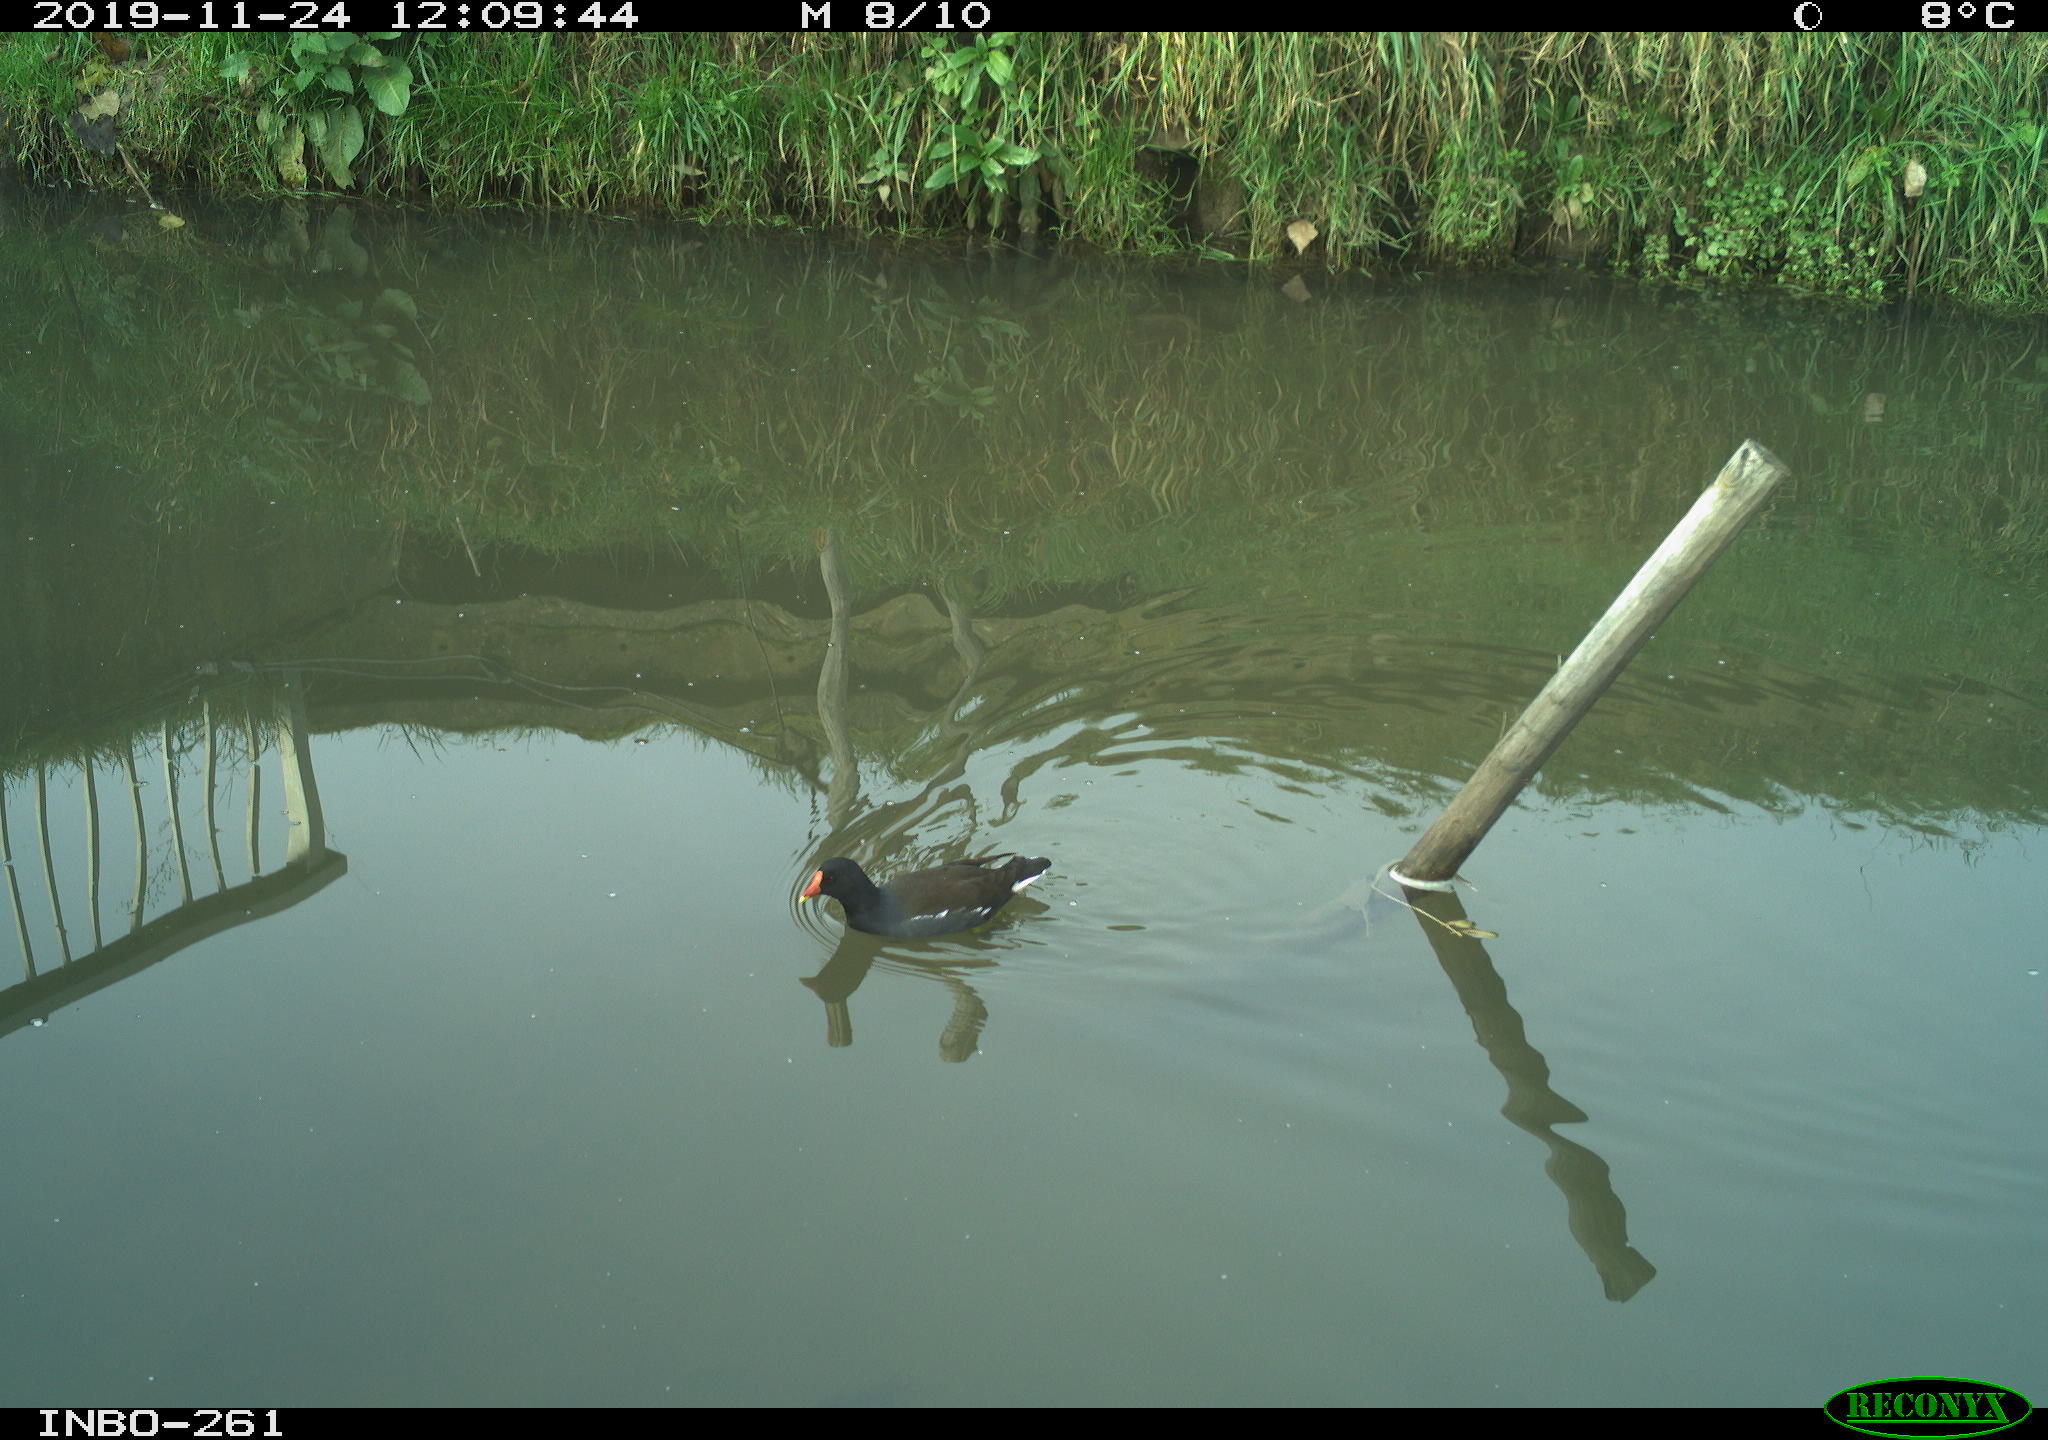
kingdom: Animalia
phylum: Chordata
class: Aves
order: Gruiformes
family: Rallidae
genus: Gallinula
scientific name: Gallinula chloropus
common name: Common moorhen
